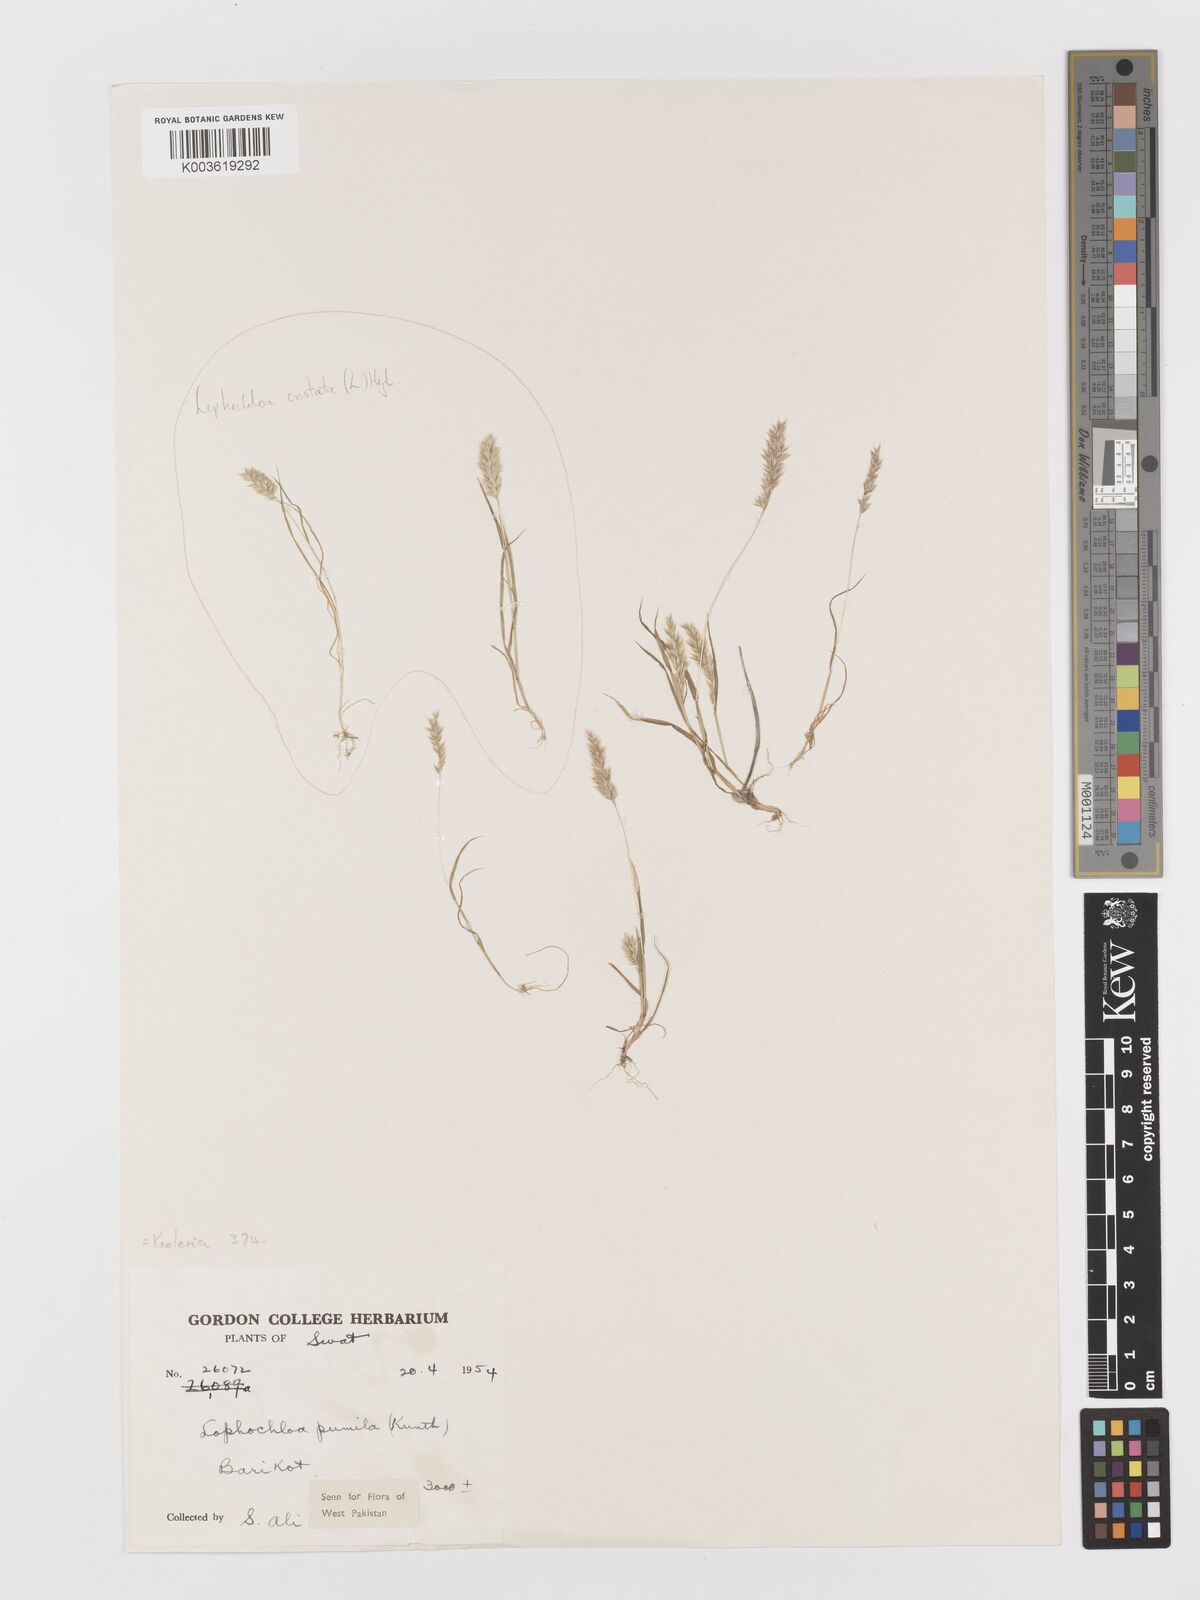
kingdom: Plantae
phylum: Tracheophyta
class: Liliopsida
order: Poales
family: Poaceae
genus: Rostraria
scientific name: Rostraria pumila
